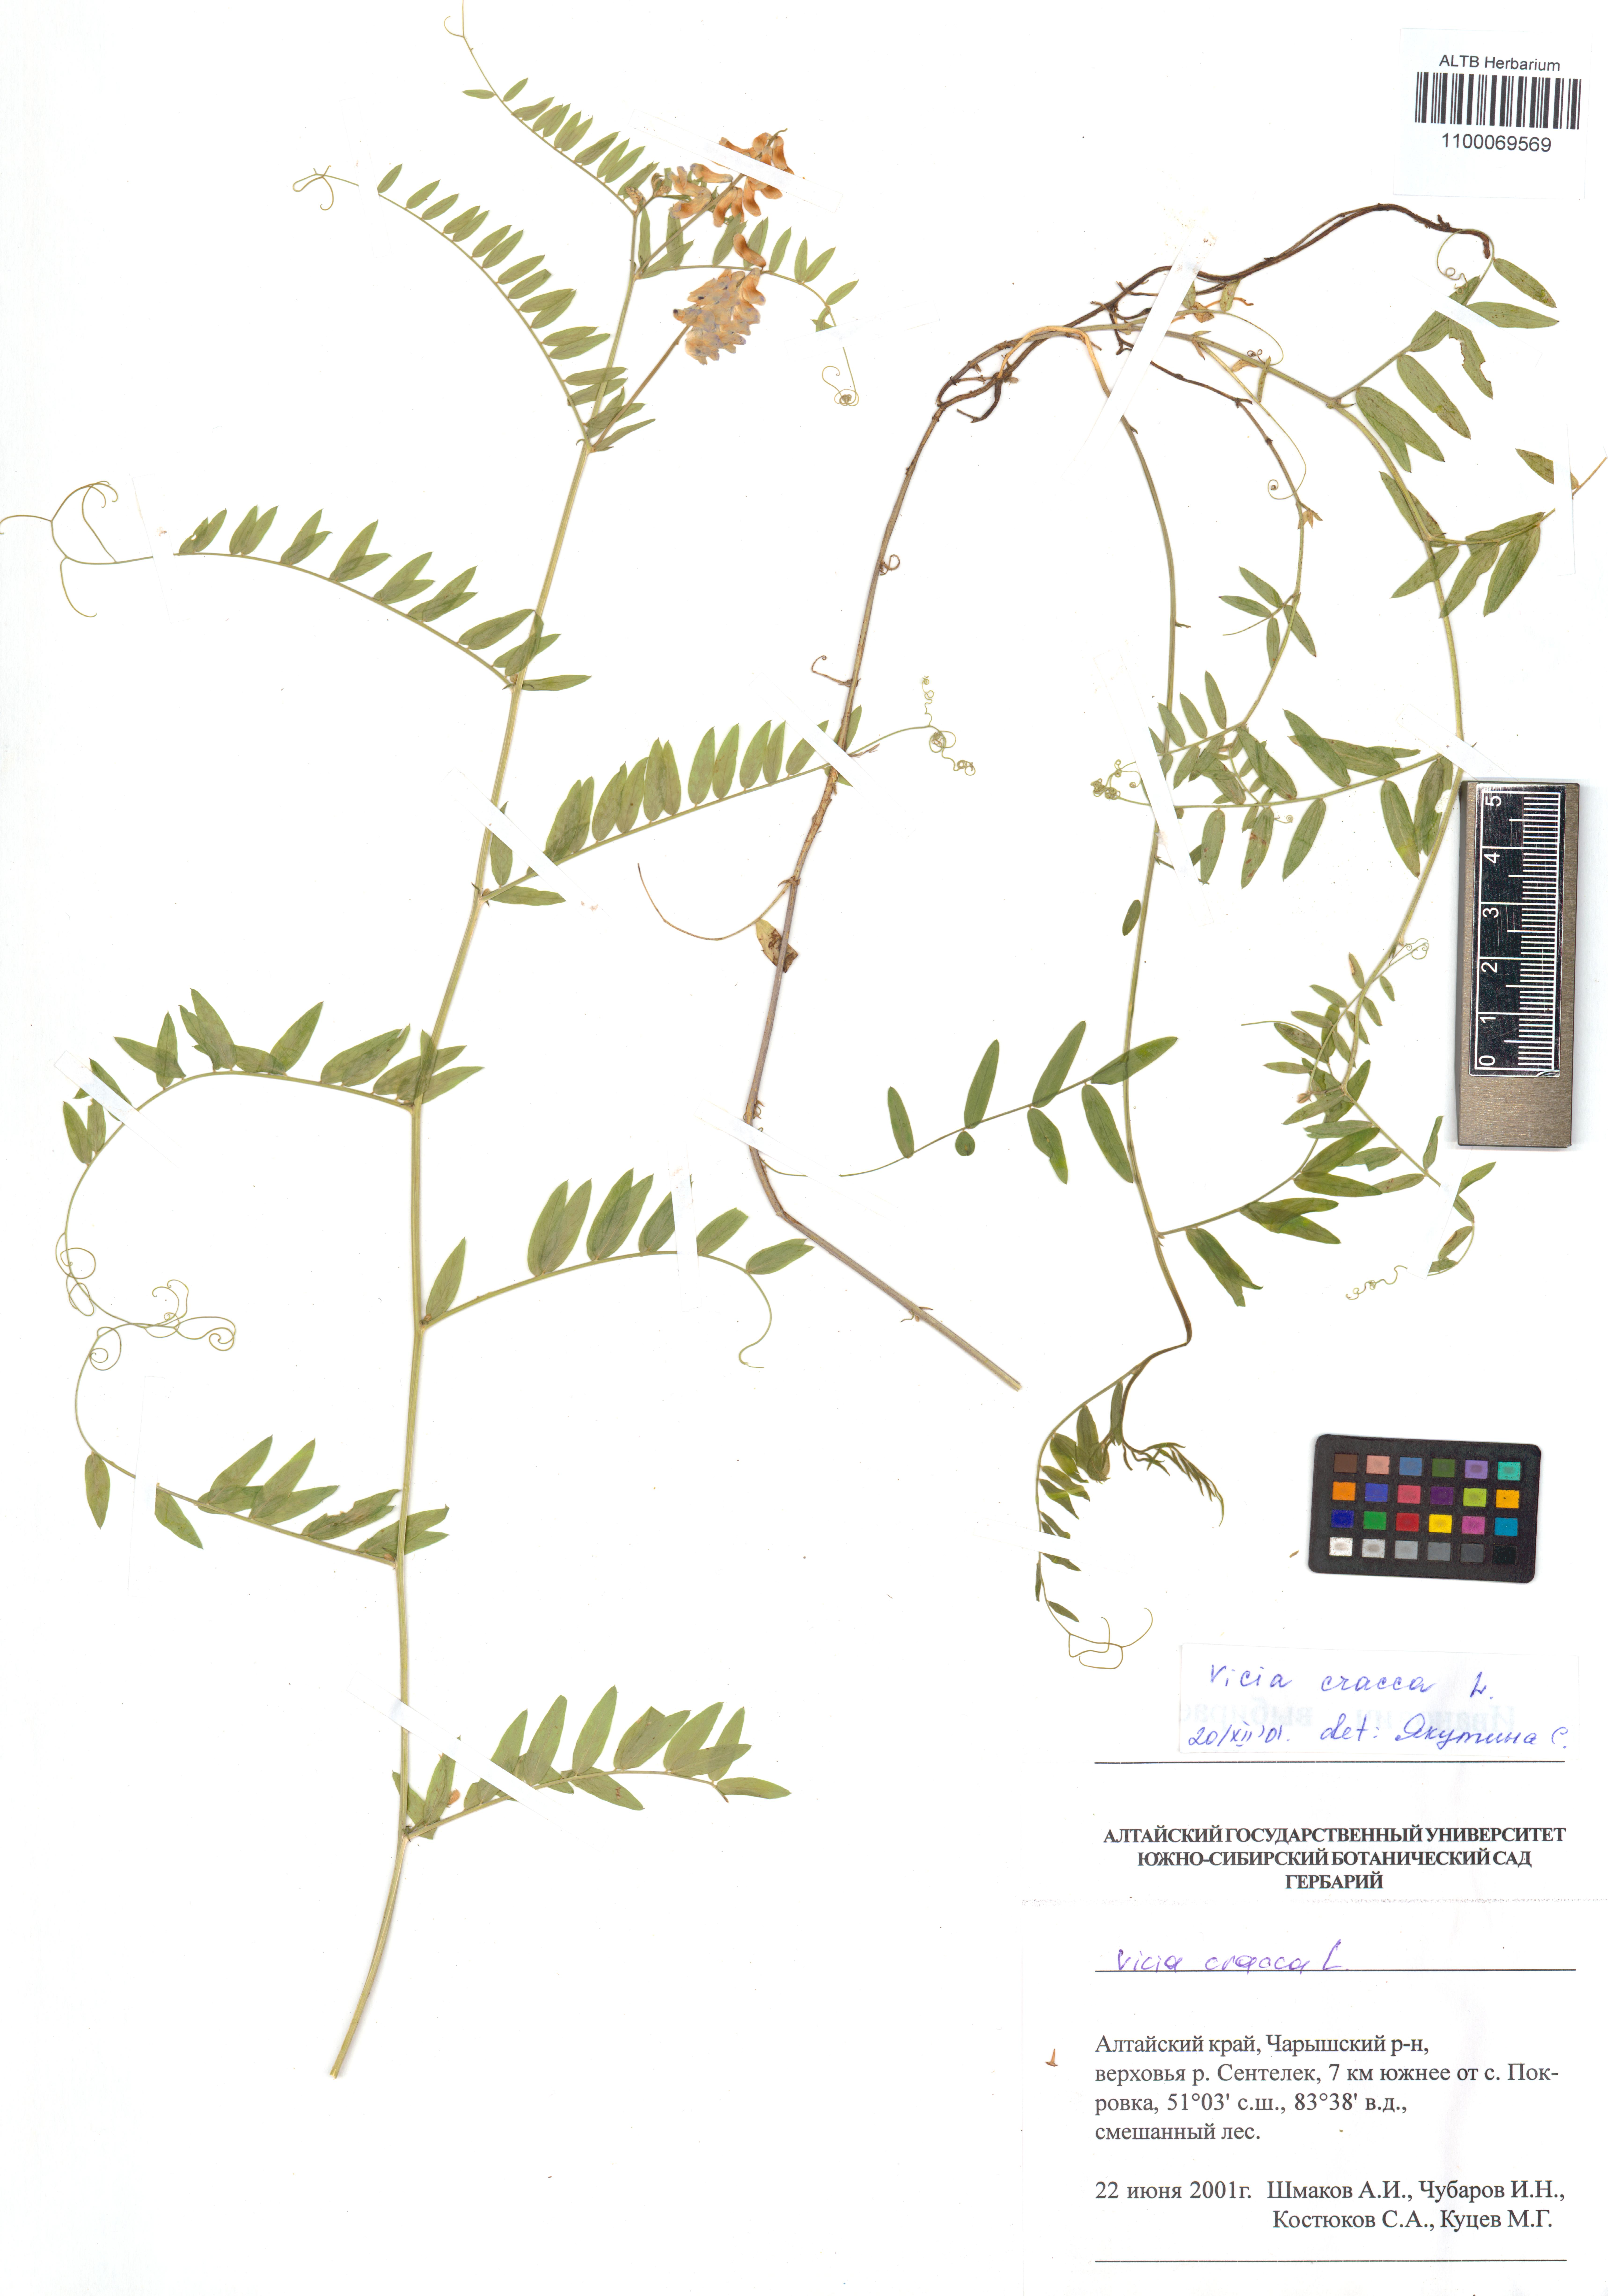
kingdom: Plantae
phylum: Tracheophyta
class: Magnoliopsida
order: Fabales
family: Fabaceae
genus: Vicia
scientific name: Vicia lilacina
